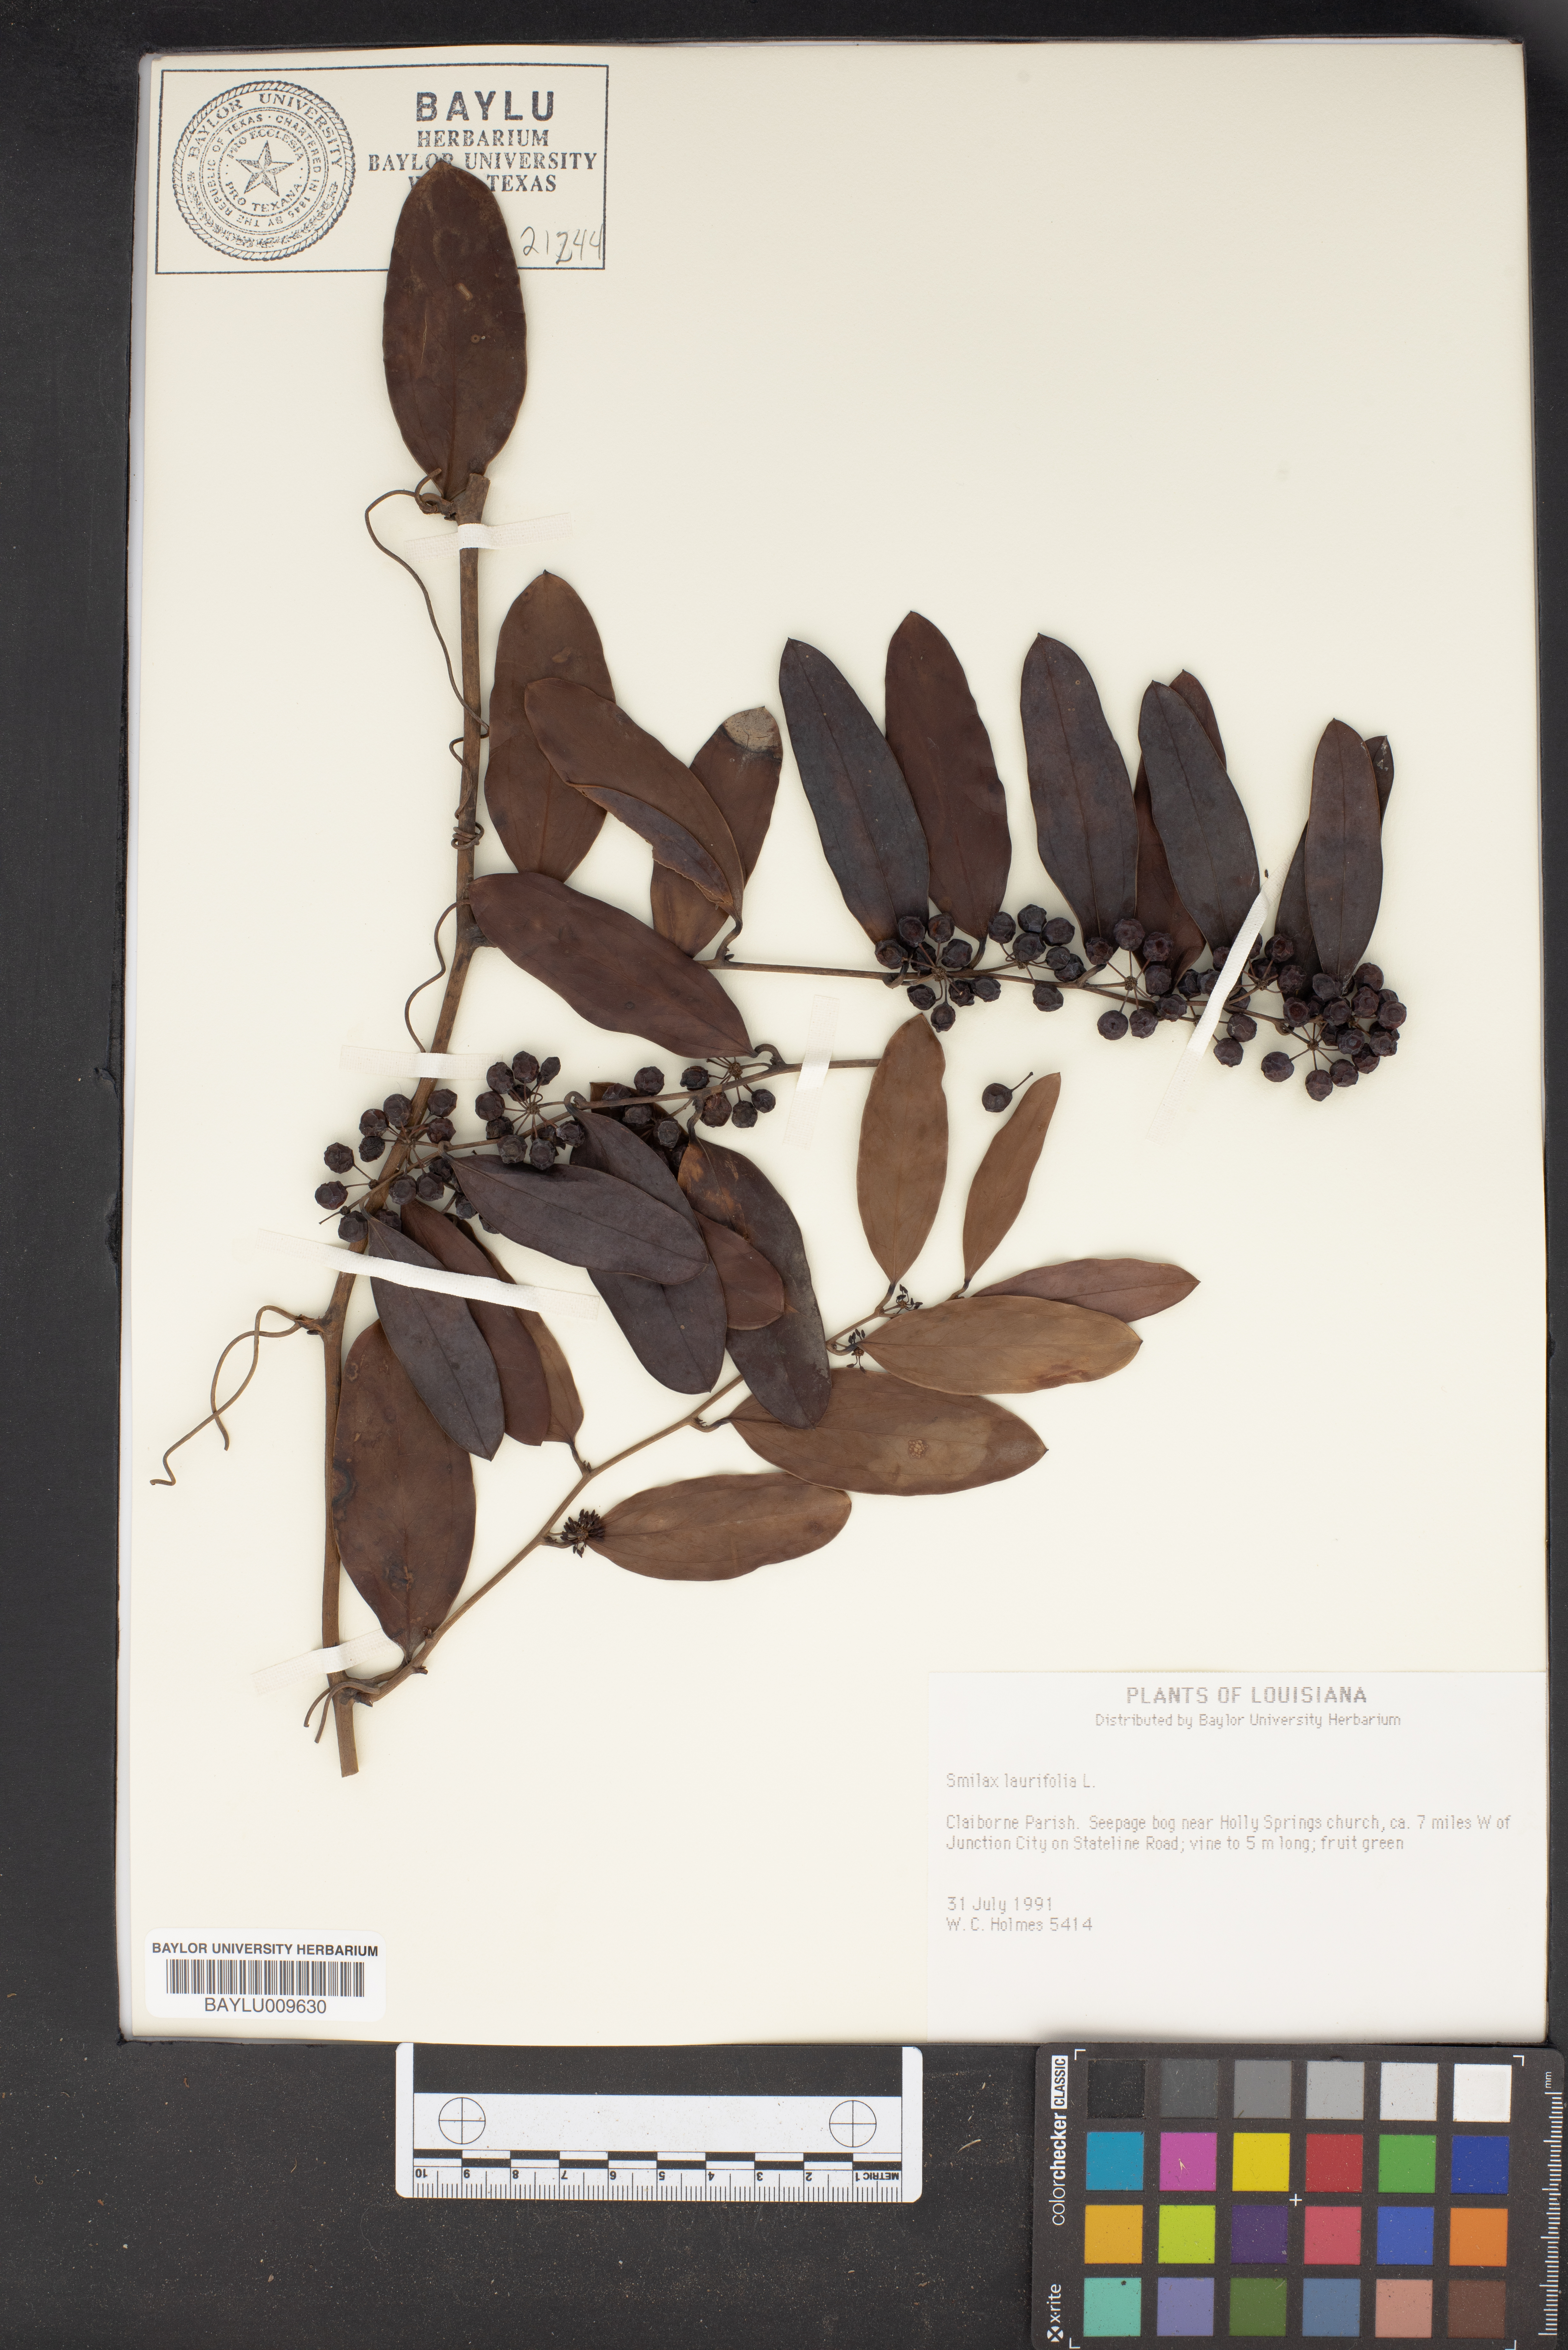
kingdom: Plantae
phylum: Tracheophyta
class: Liliopsida
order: Liliales
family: Smilacaceae
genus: Smilax
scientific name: Smilax laurifolia
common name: Bamboovine
